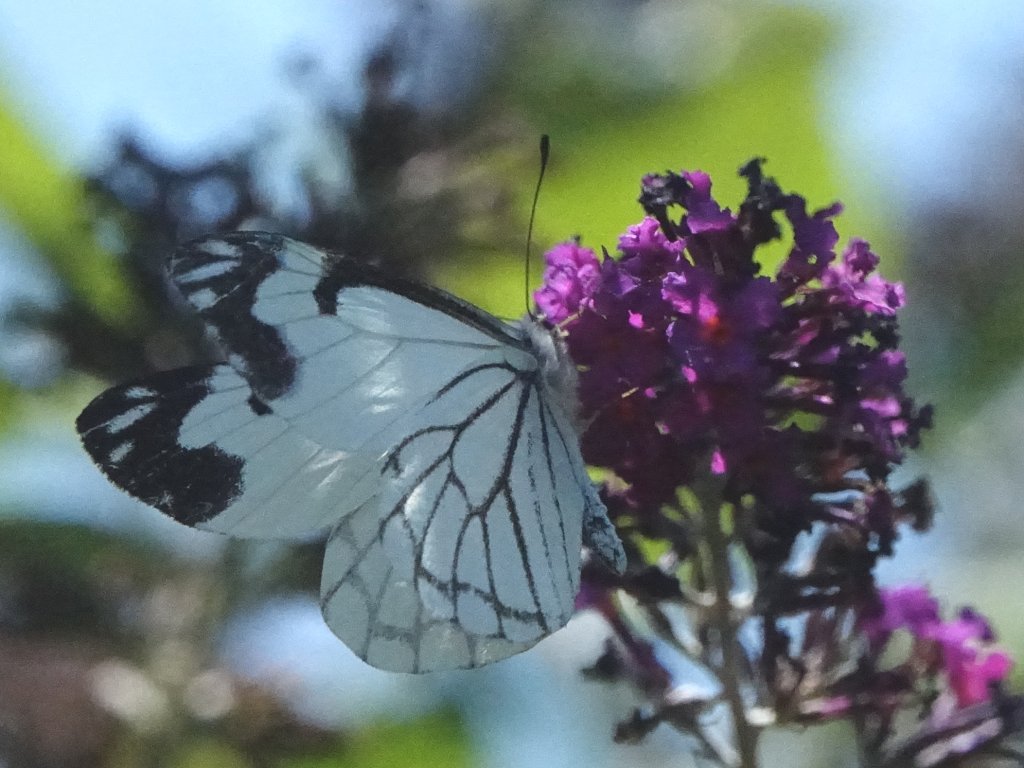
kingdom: Animalia
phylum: Arthropoda
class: Insecta
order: Lepidoptera
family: Pieridae
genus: Neophasia
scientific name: Neophasia menapia
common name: Pine White
